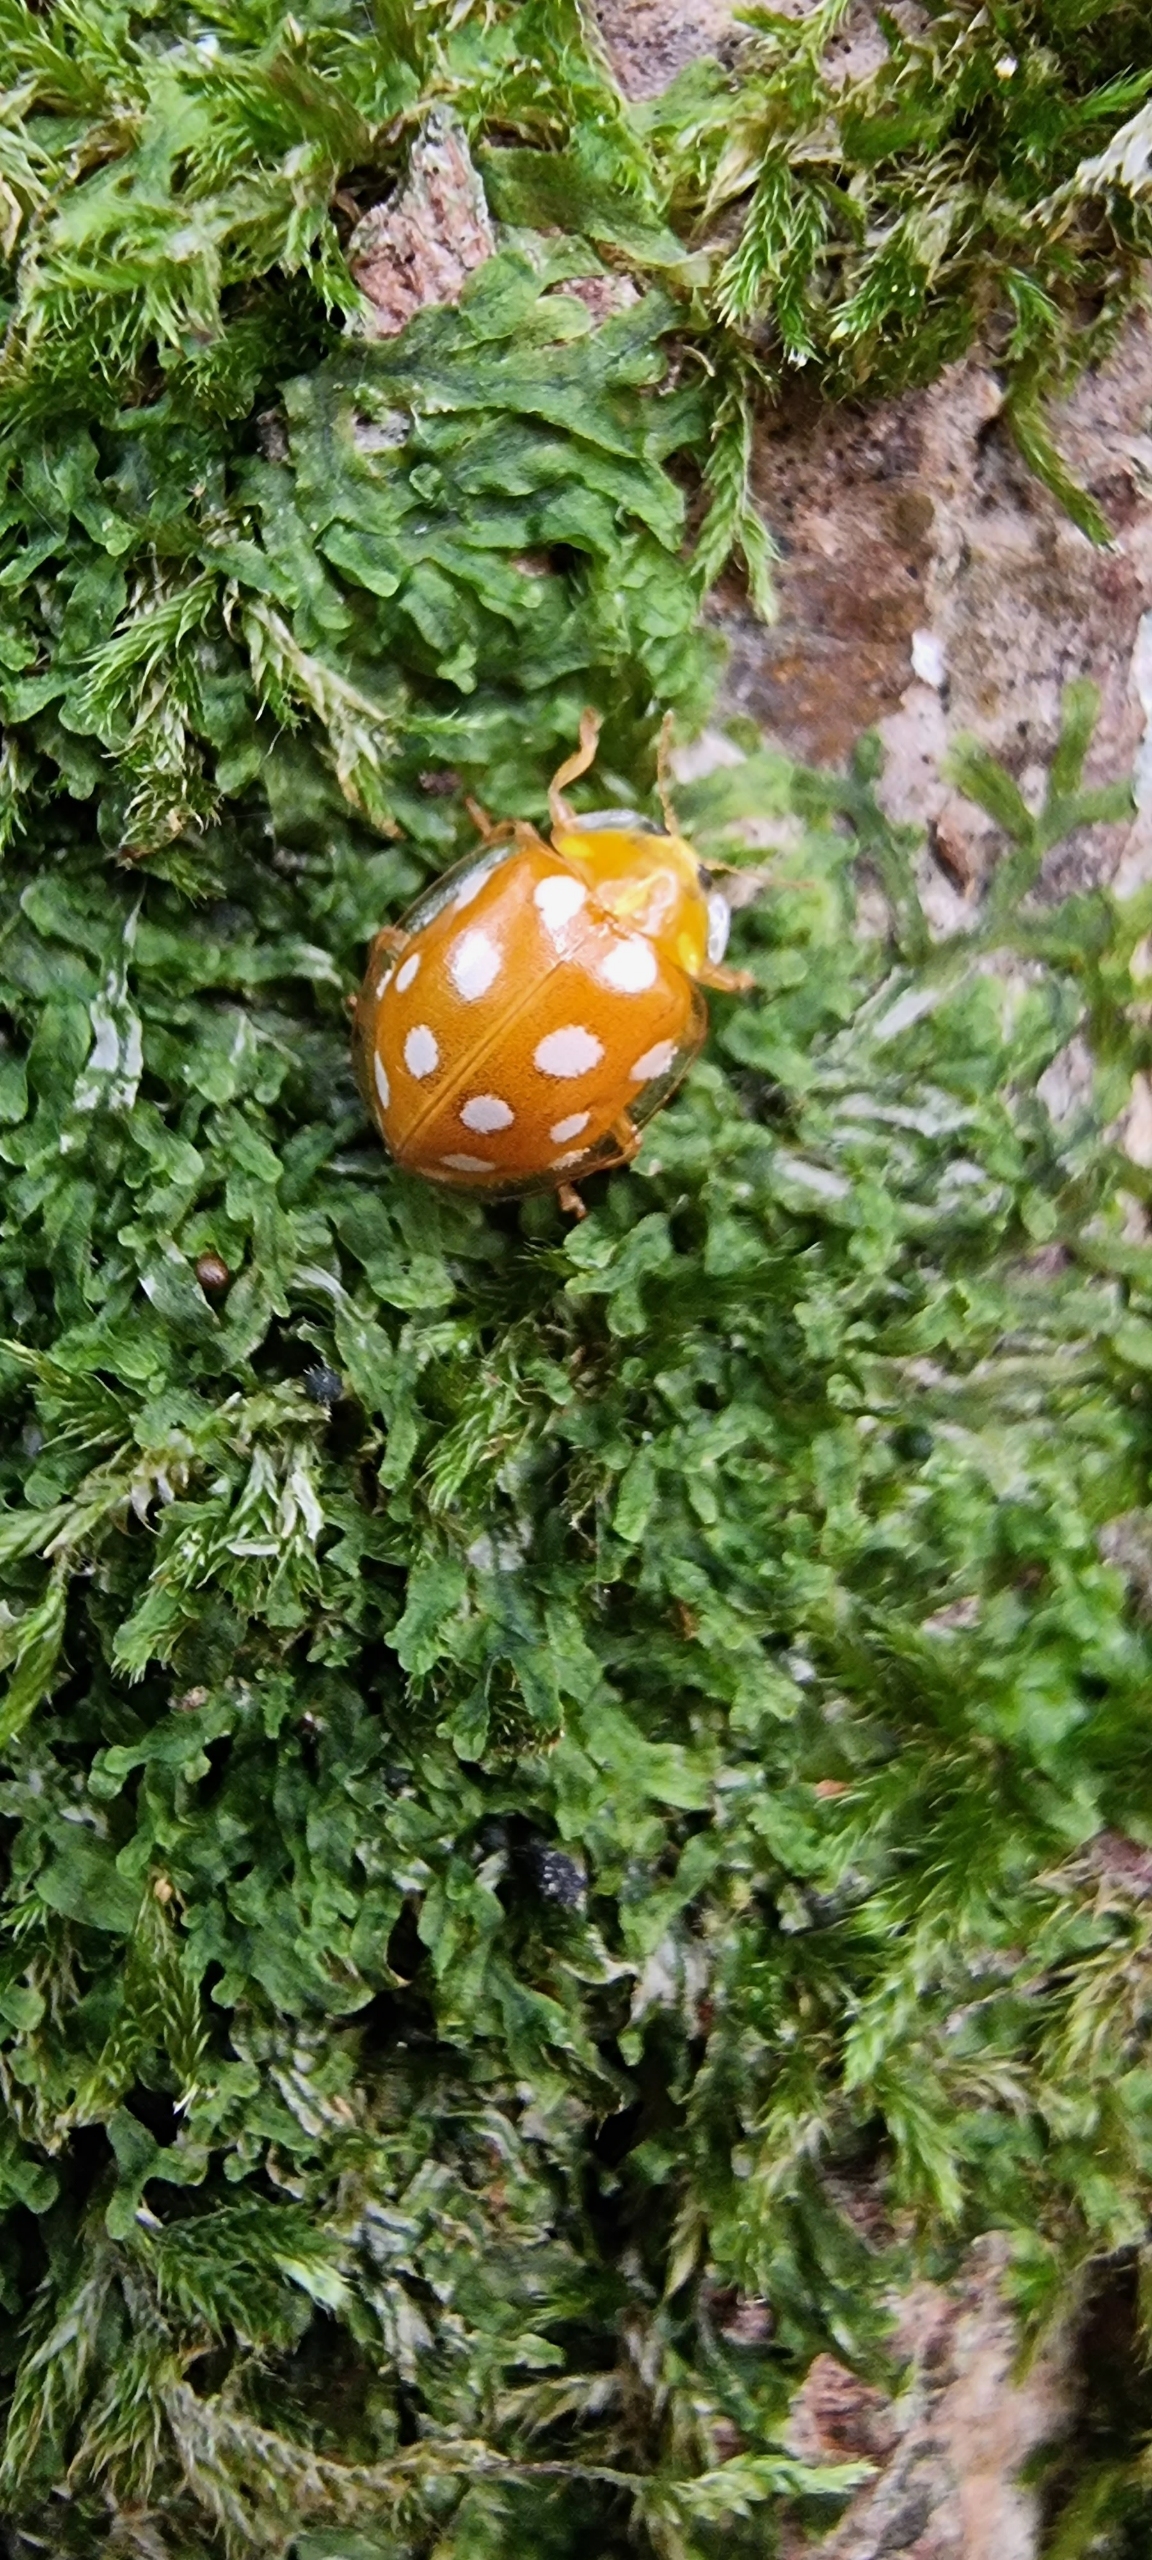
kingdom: Animalia
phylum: Arthropoda
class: Insecta
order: Coleoptera
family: Coccinellidae
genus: Halyzia
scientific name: Halyzia sedecimguttata
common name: Sekstenplettet mariehøne
